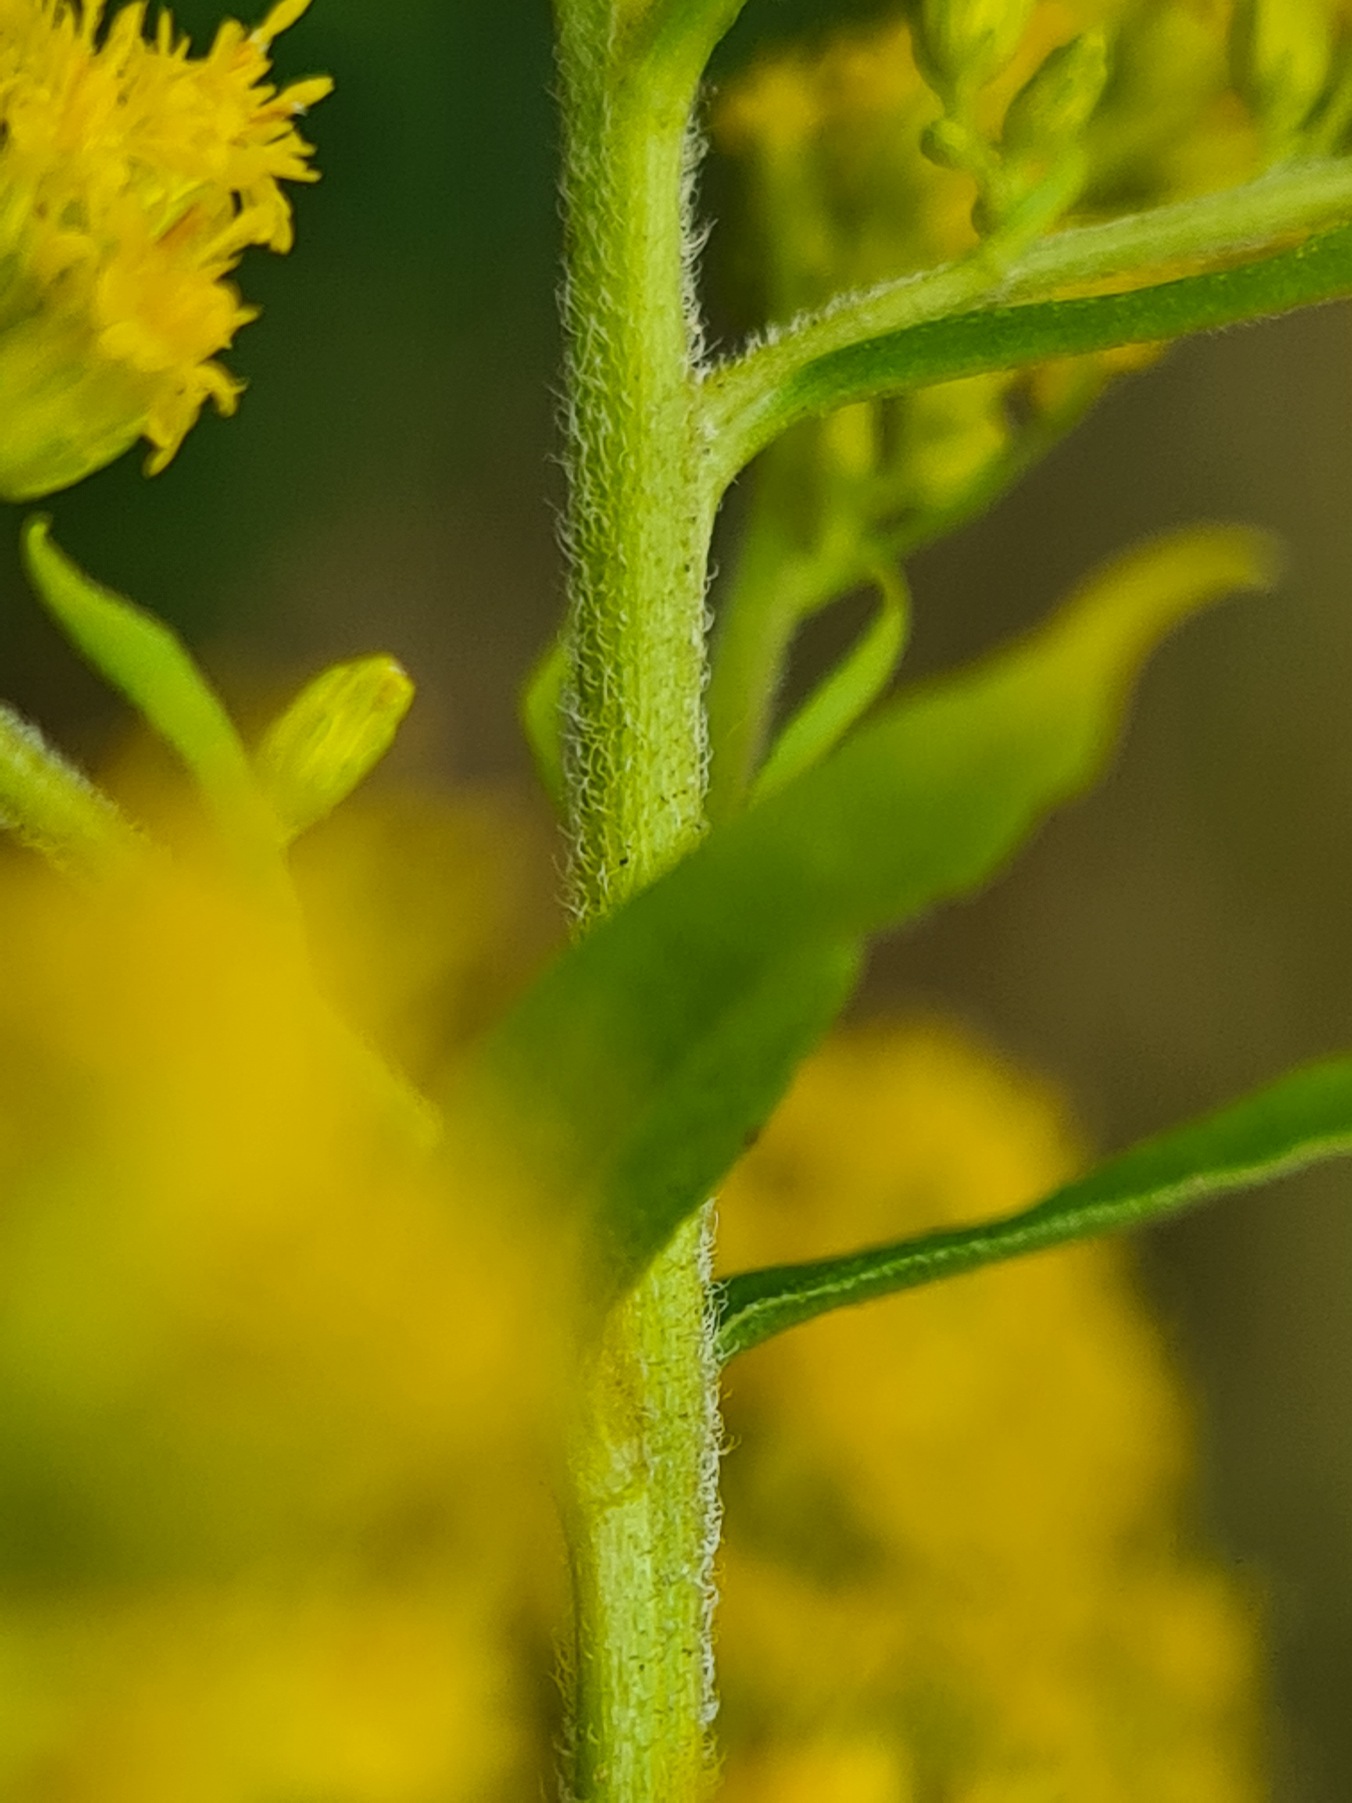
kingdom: Plantae
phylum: Tracheophyta
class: Magnoliopsida
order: Asterales
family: Asteraceae
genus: Solidago
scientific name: Solidago canadensis
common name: Kanadisk gyldenris
